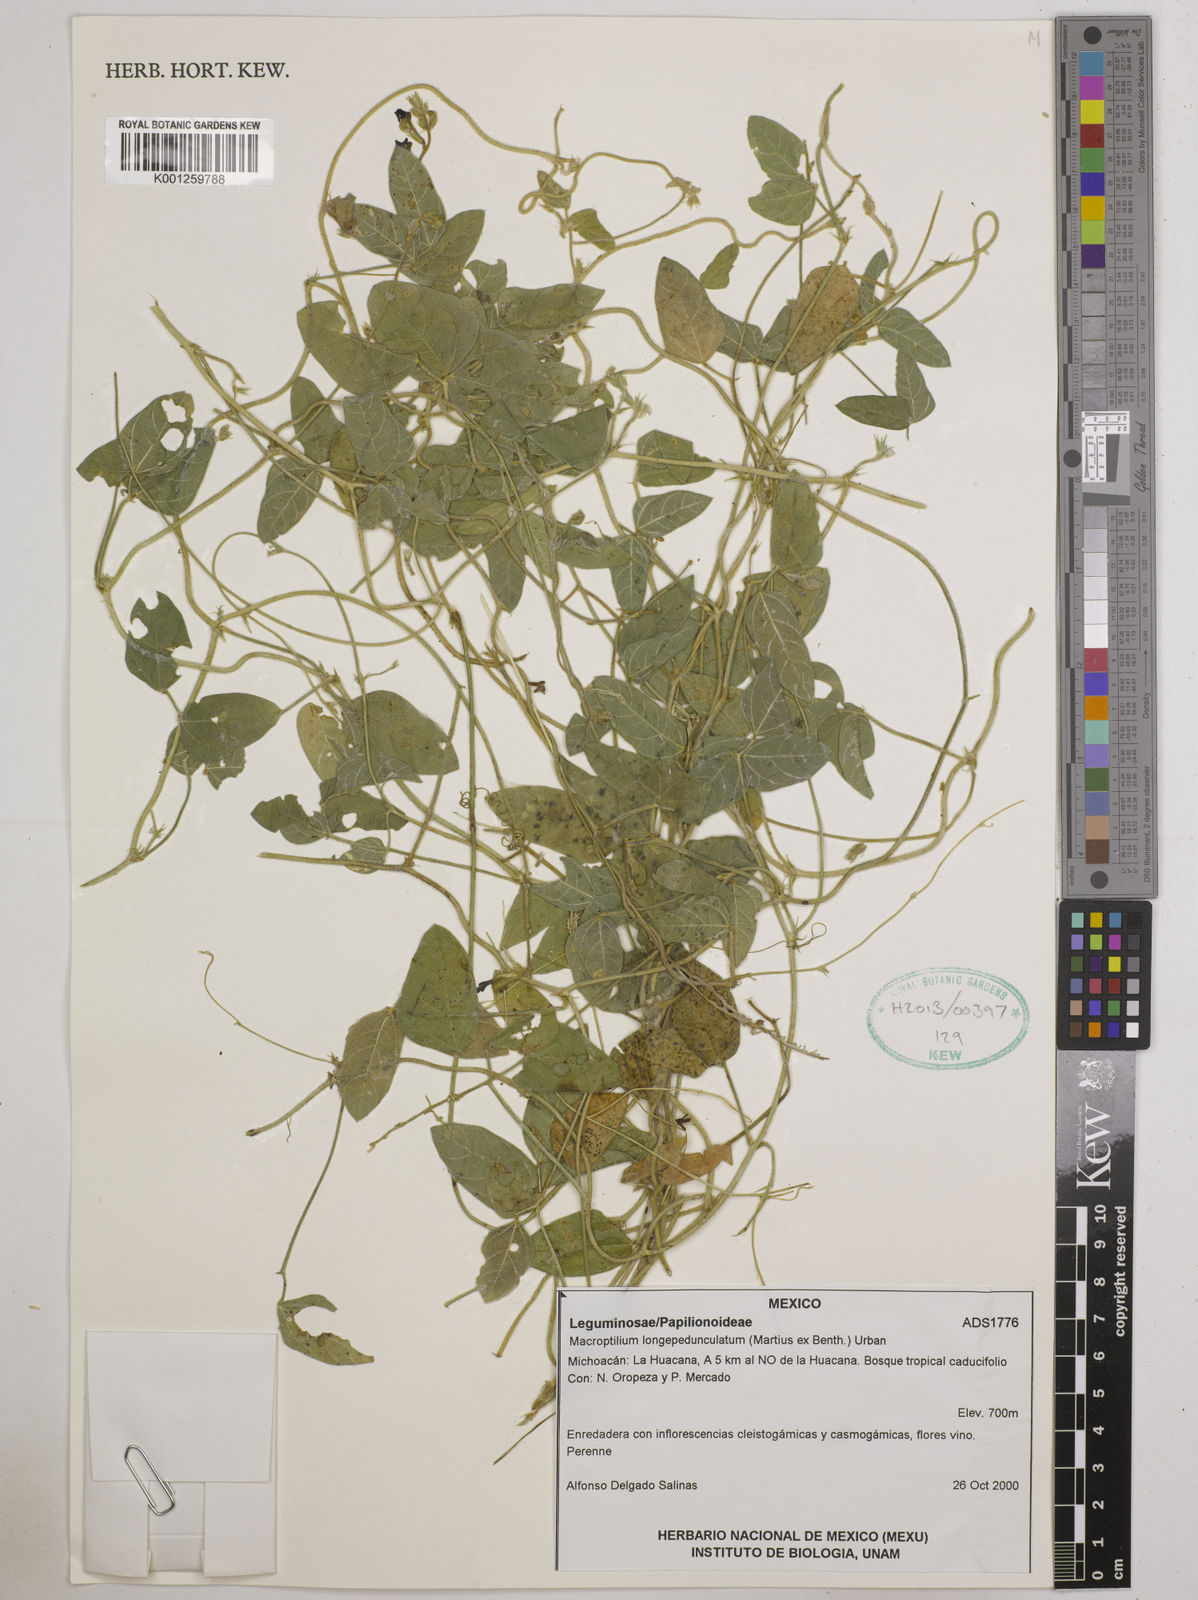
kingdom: Plantae
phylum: Tracheophyta
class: Magnoliopsida
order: Fabales
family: Fabaceae
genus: Macroptilium
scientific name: Macroptilium longepedunculatum
